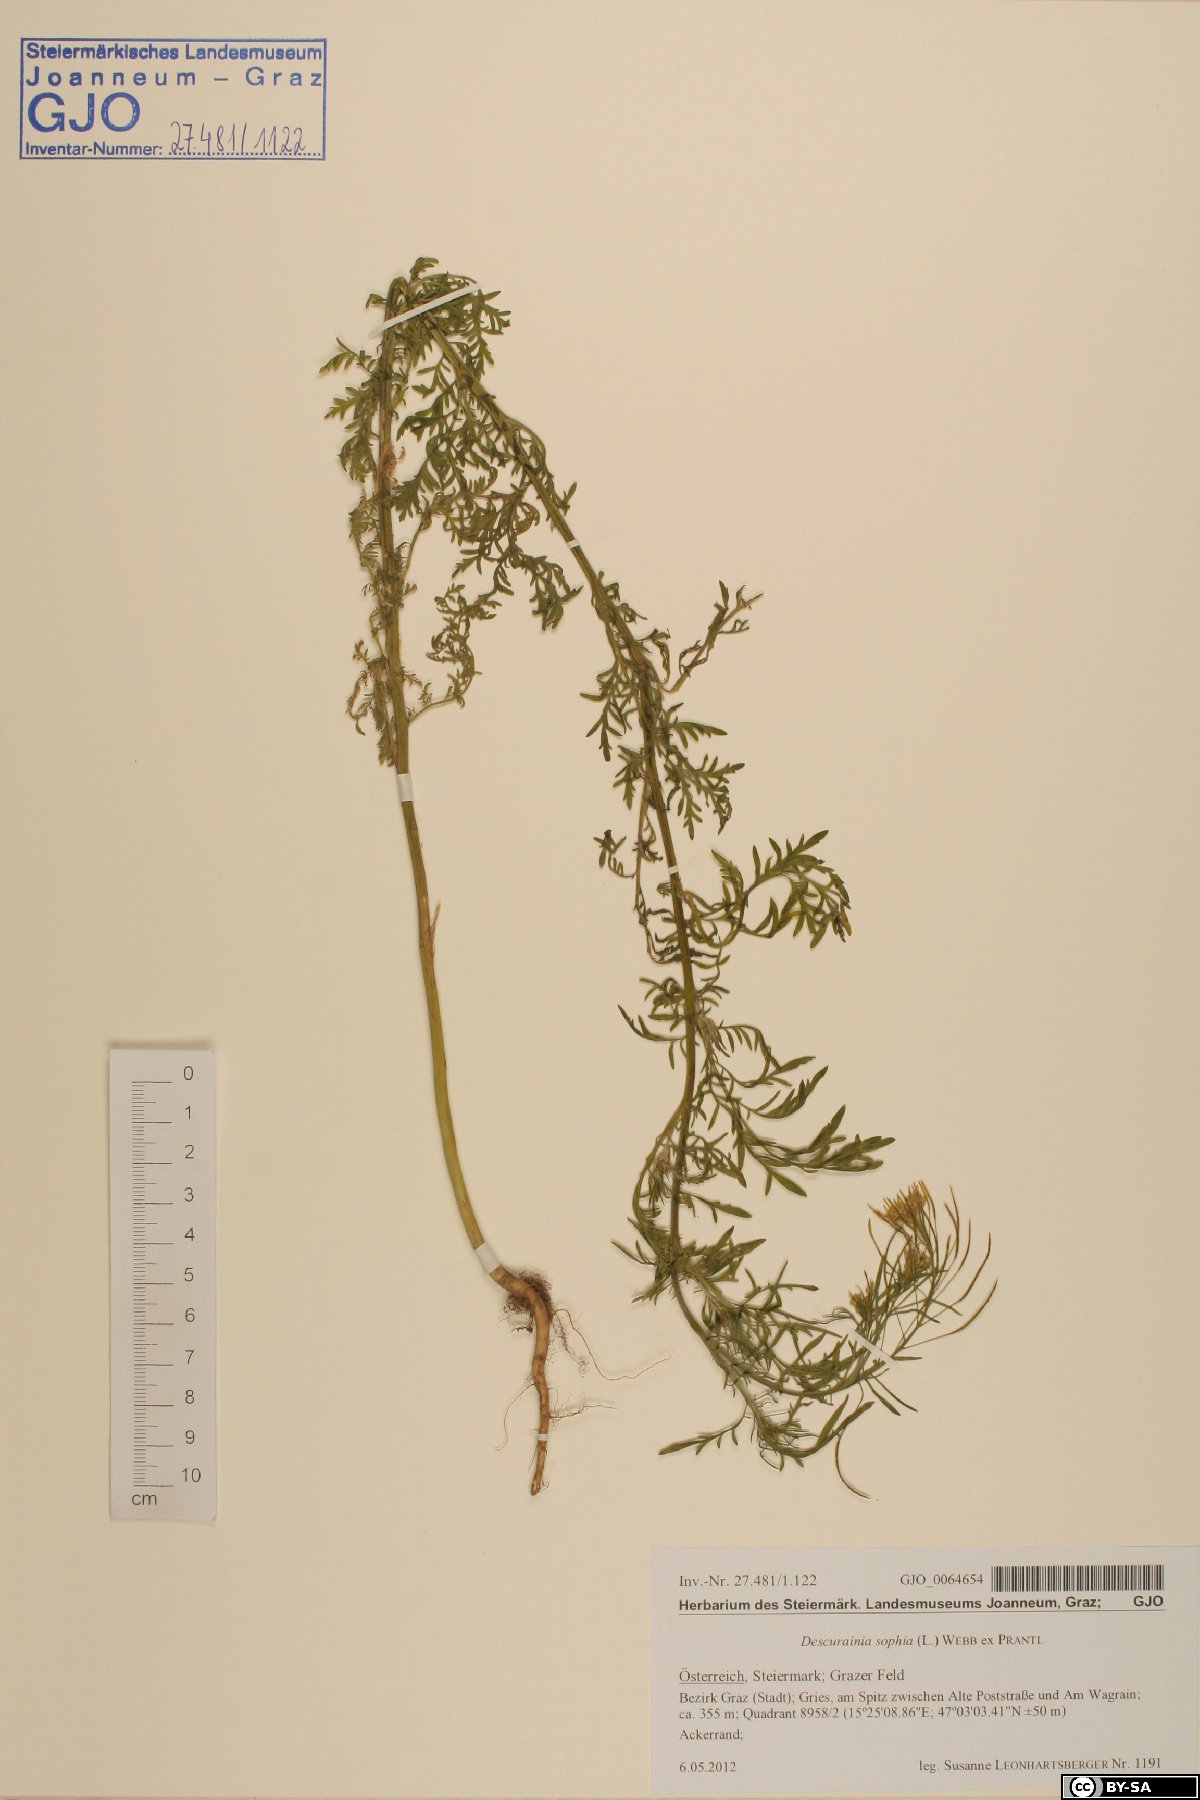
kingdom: Plantae
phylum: Tracheophyta
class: Magnoliopsida
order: Brassicales
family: Brassicaceae
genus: Descurainia
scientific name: Descurainia sophia
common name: Flixweed
